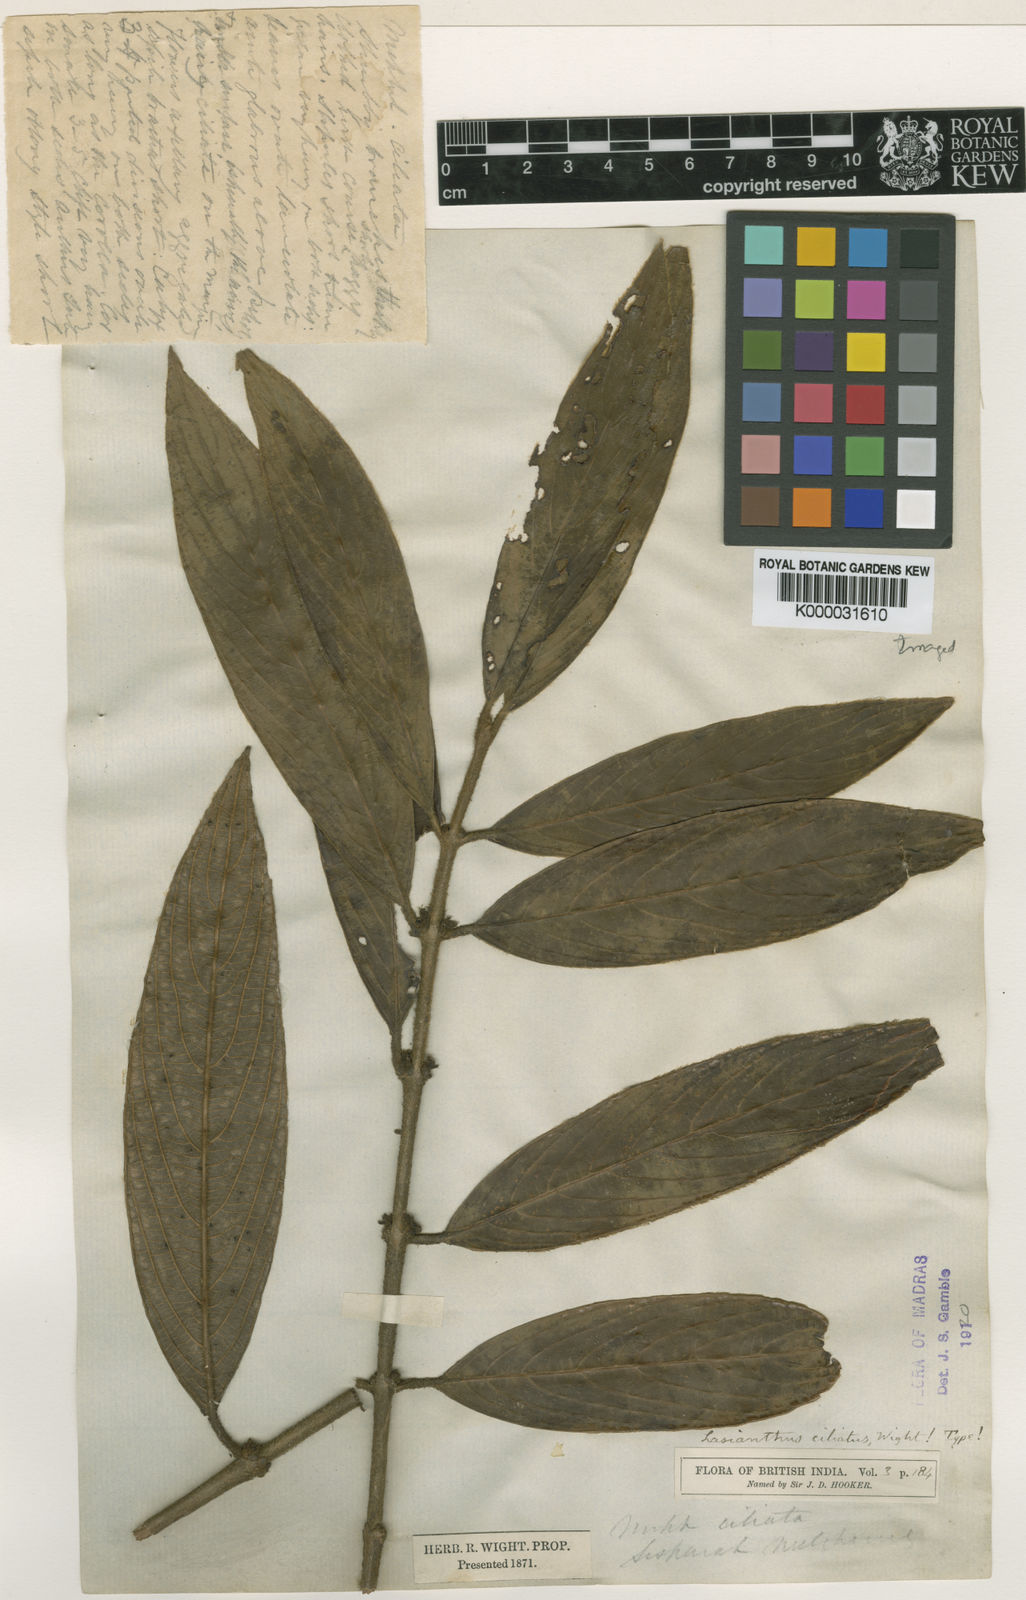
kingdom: Plantae
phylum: Tracheophyta
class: Magnoliopsida
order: Gentianales
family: Rubiaceae
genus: Lasianthus
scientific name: Lasianthus ciliatus
